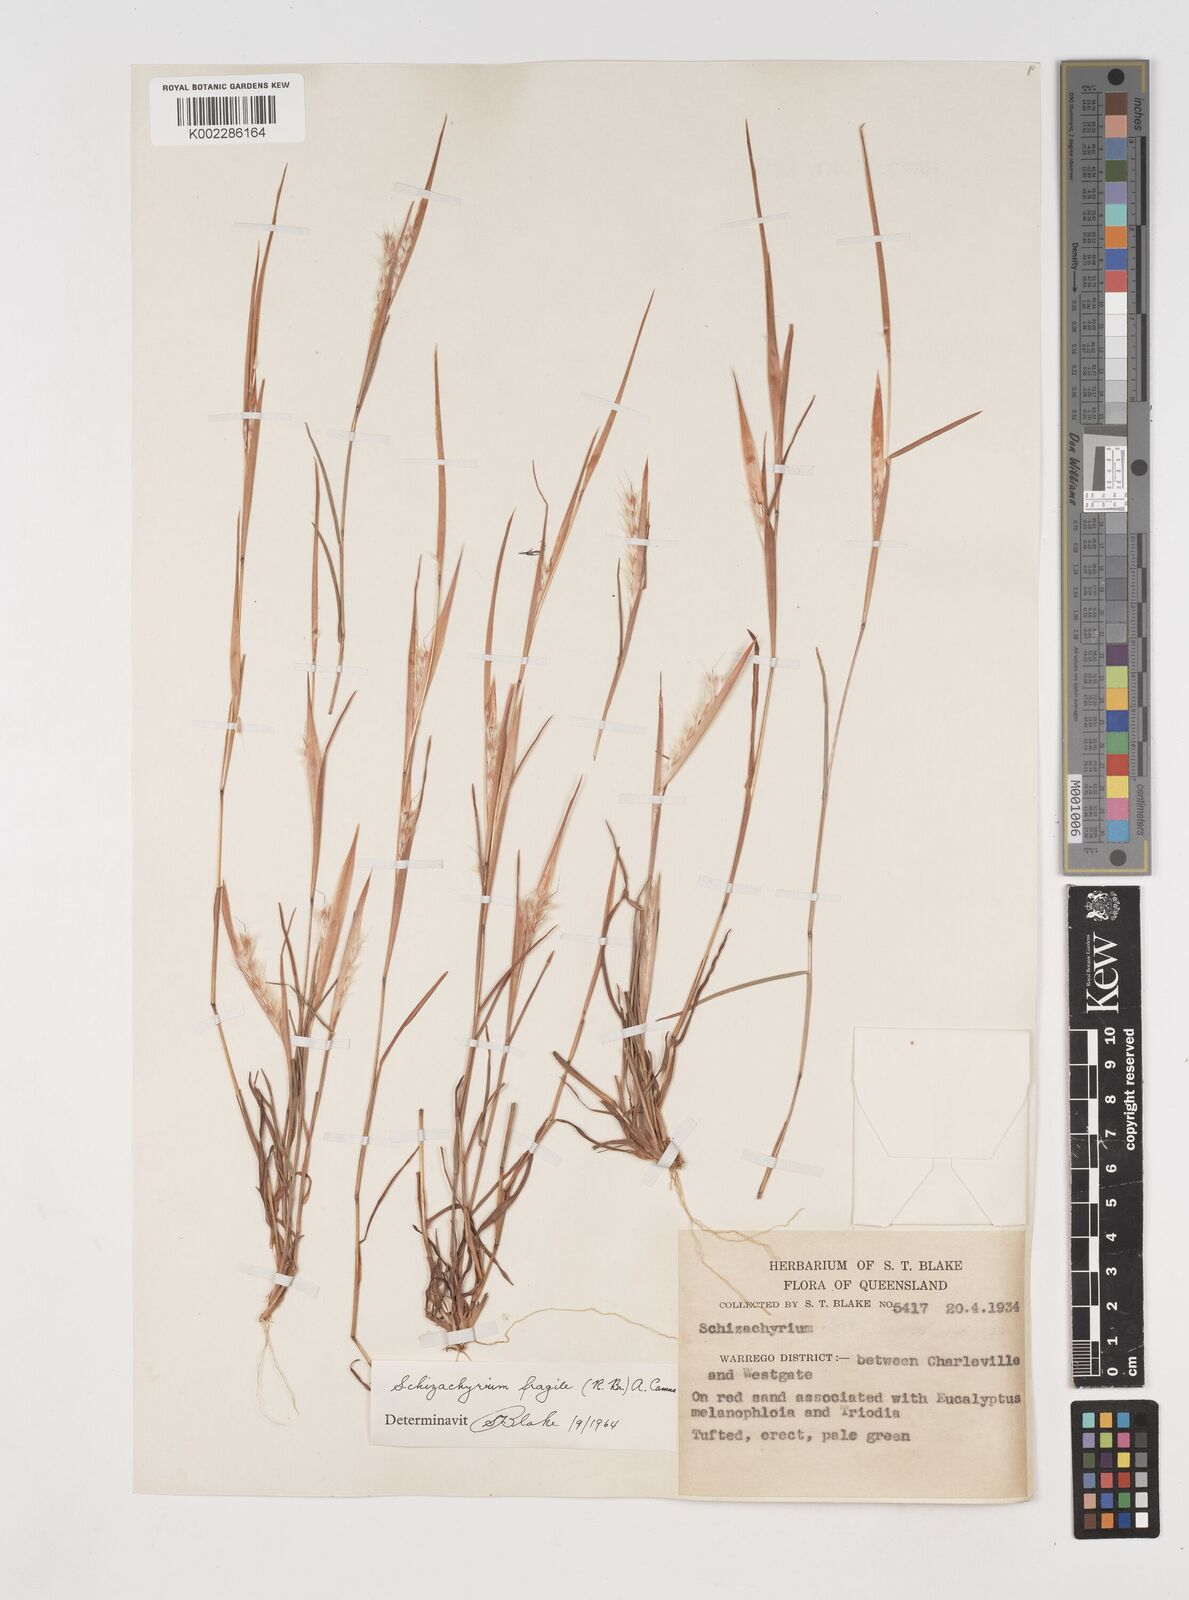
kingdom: Plantae
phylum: Tracheophyta
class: Liliopsida
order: Poales
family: Poaceae
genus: Schizachyrium
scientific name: Schizachyrium fragile
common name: Red spathe grass
